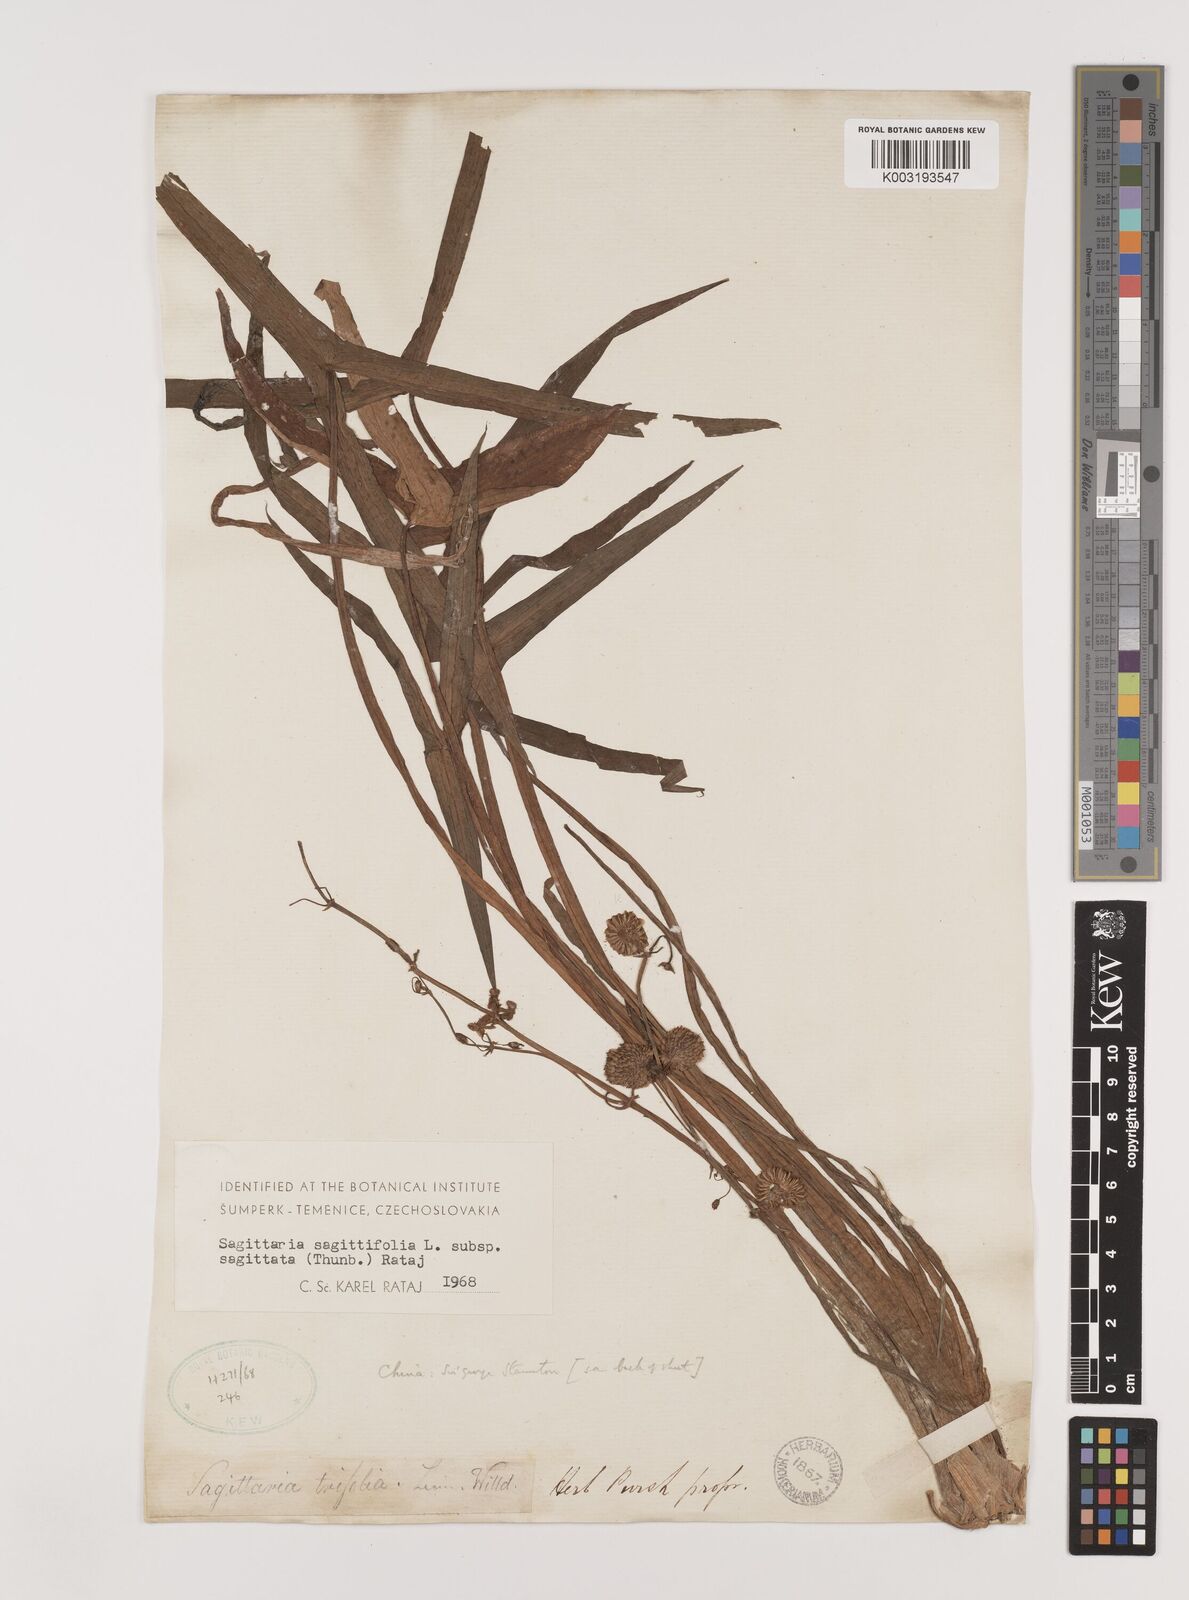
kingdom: Plantae
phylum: Tracheophyta
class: Liliopsida
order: Alismatales
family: Alismataceae
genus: Sagittaria
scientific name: Sagittaria trifolia
